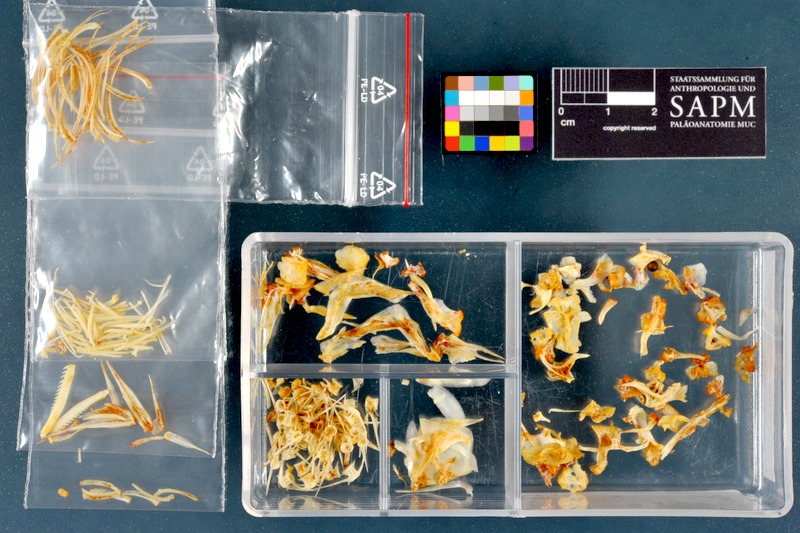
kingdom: Animalia
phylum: Chordata
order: Cypriniformes
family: Cyprinidae
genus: Cyprinion
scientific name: Cyprinion macrostomum
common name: Largemouth lotak
